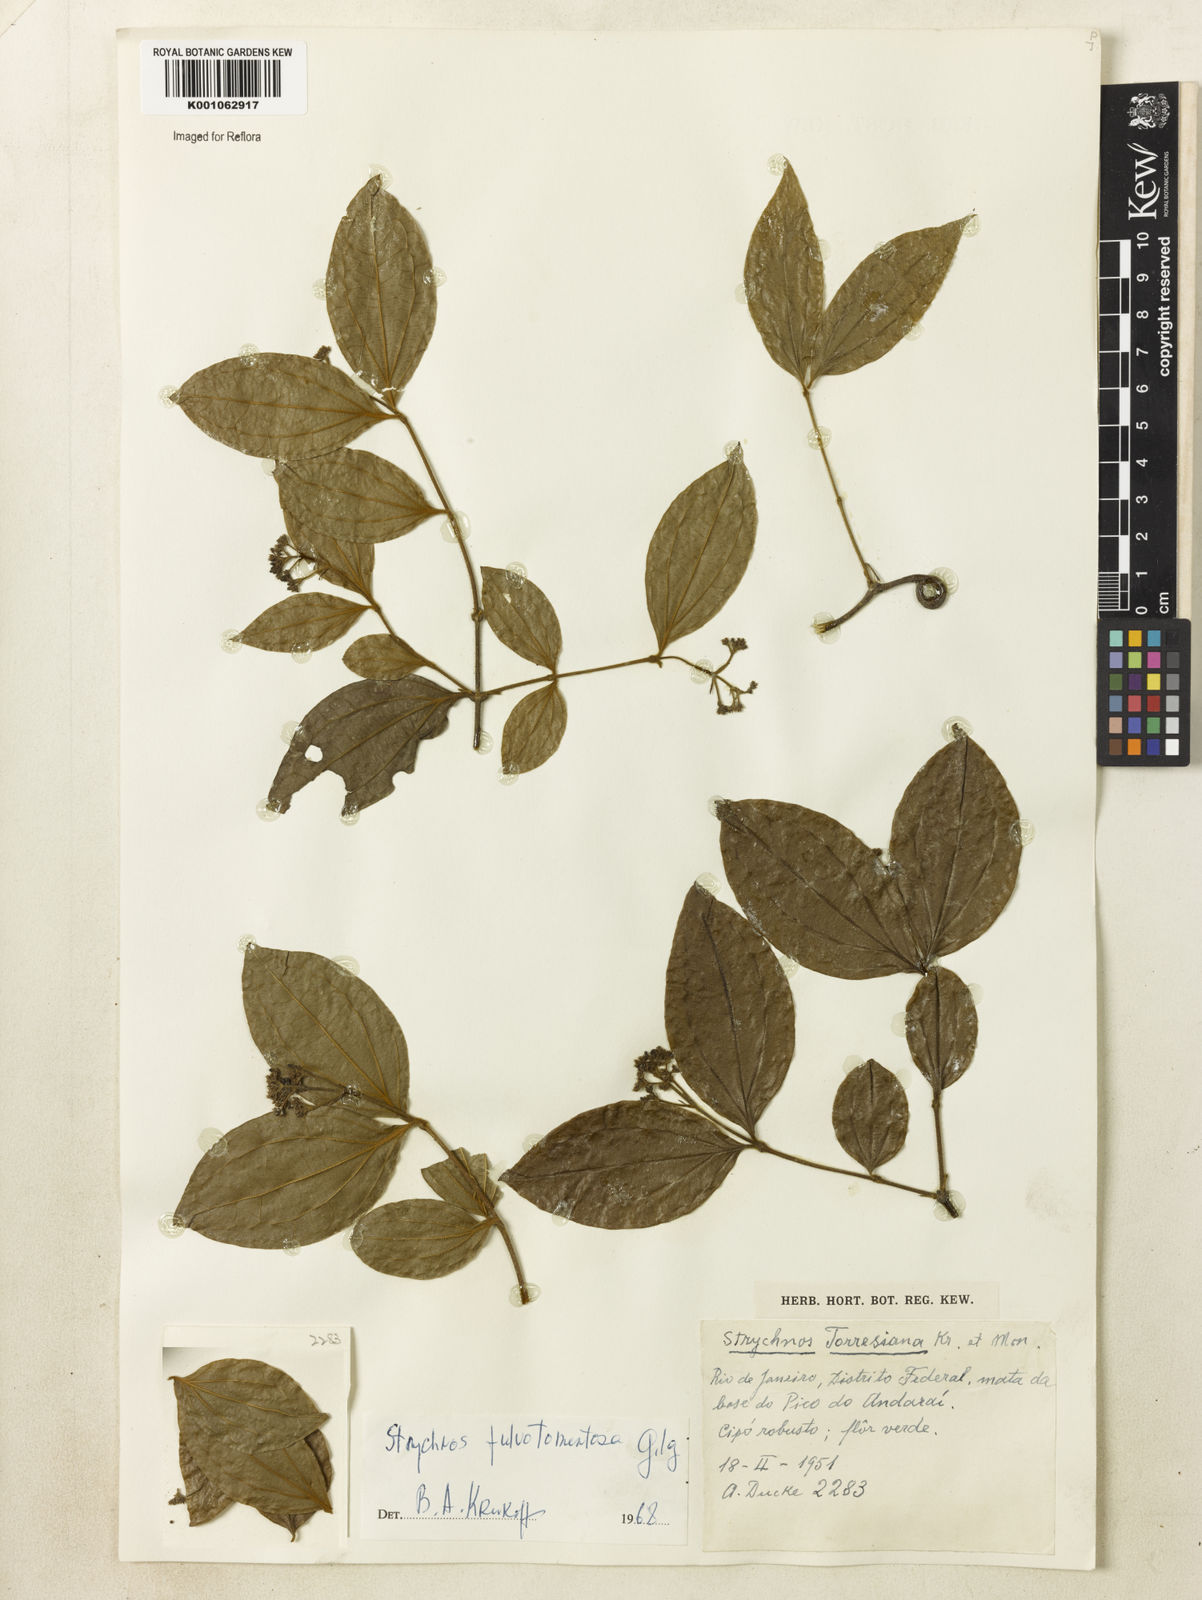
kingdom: Plantae
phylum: Tracheophyta
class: Magnoliopsida
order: Gentianales
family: Loganiaceae
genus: Strychnos
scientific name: Strychnos fulvotomentosa
